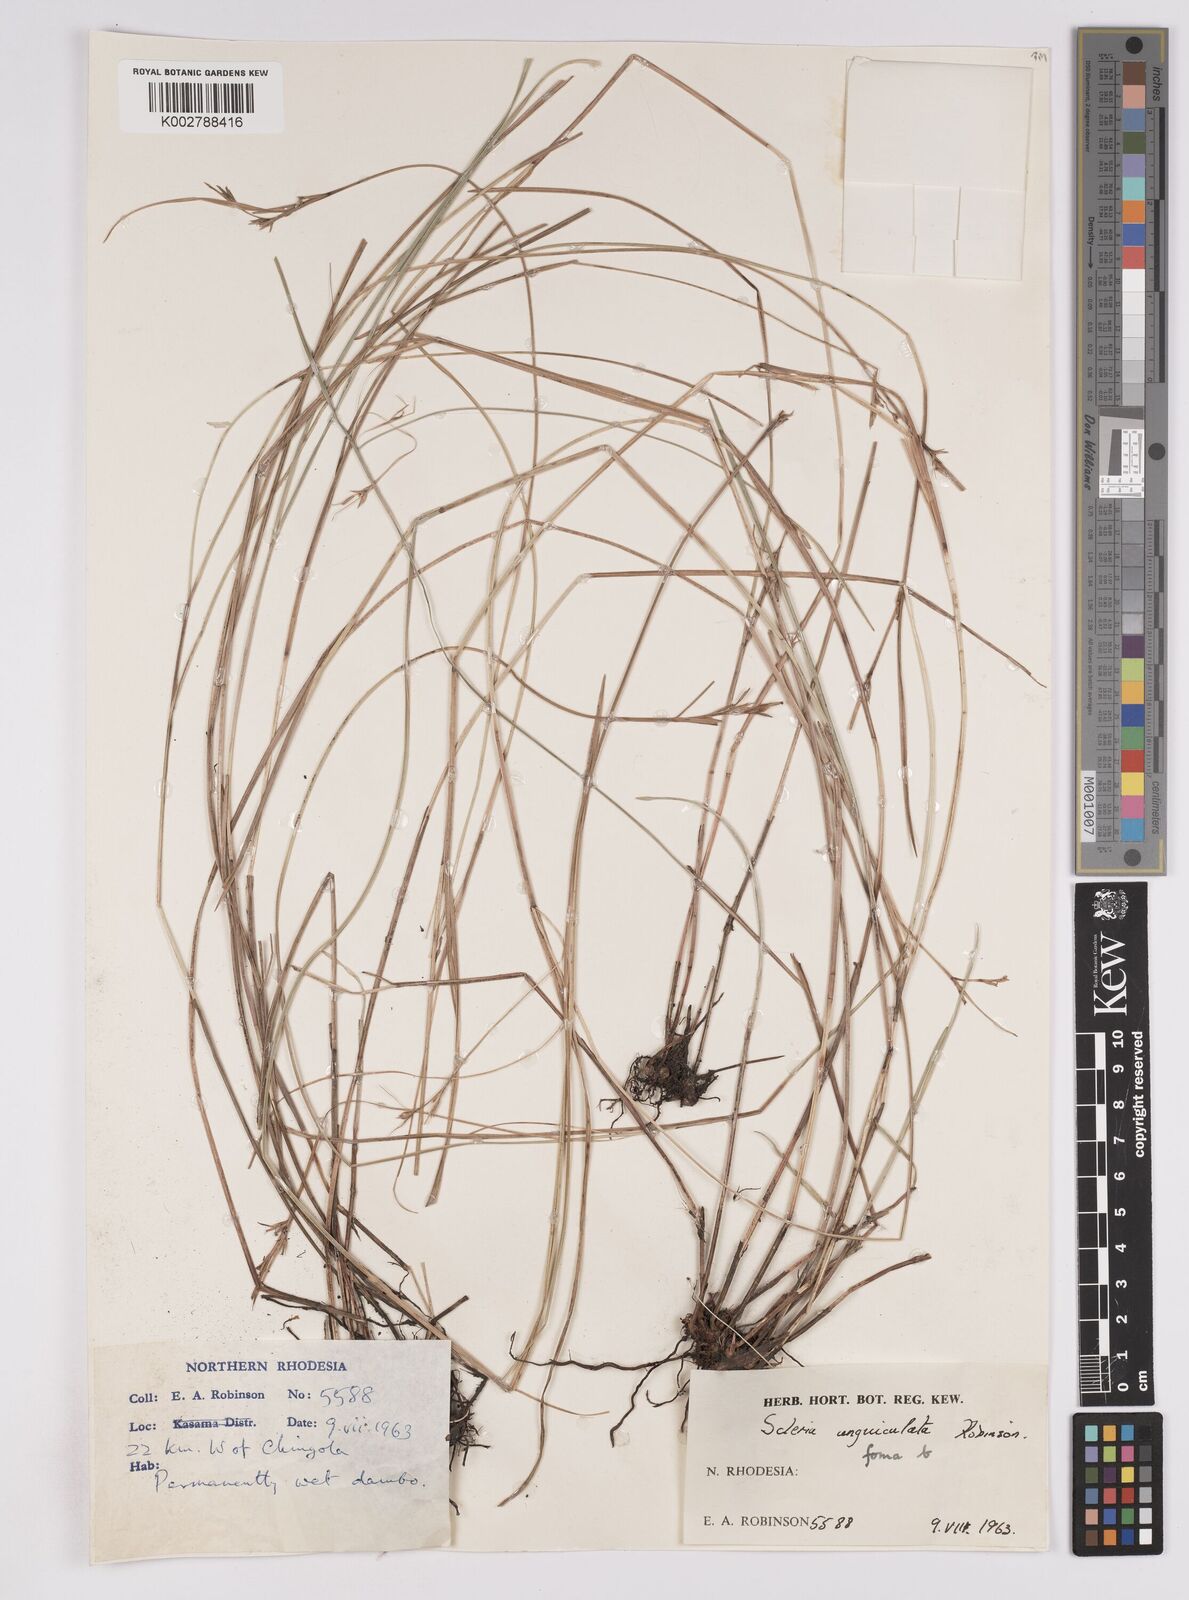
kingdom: Plantae
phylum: Tracheophyta
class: Liliopsida
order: Poales
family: Cyperaceae
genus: Scleria
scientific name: Scleria unguiculata
